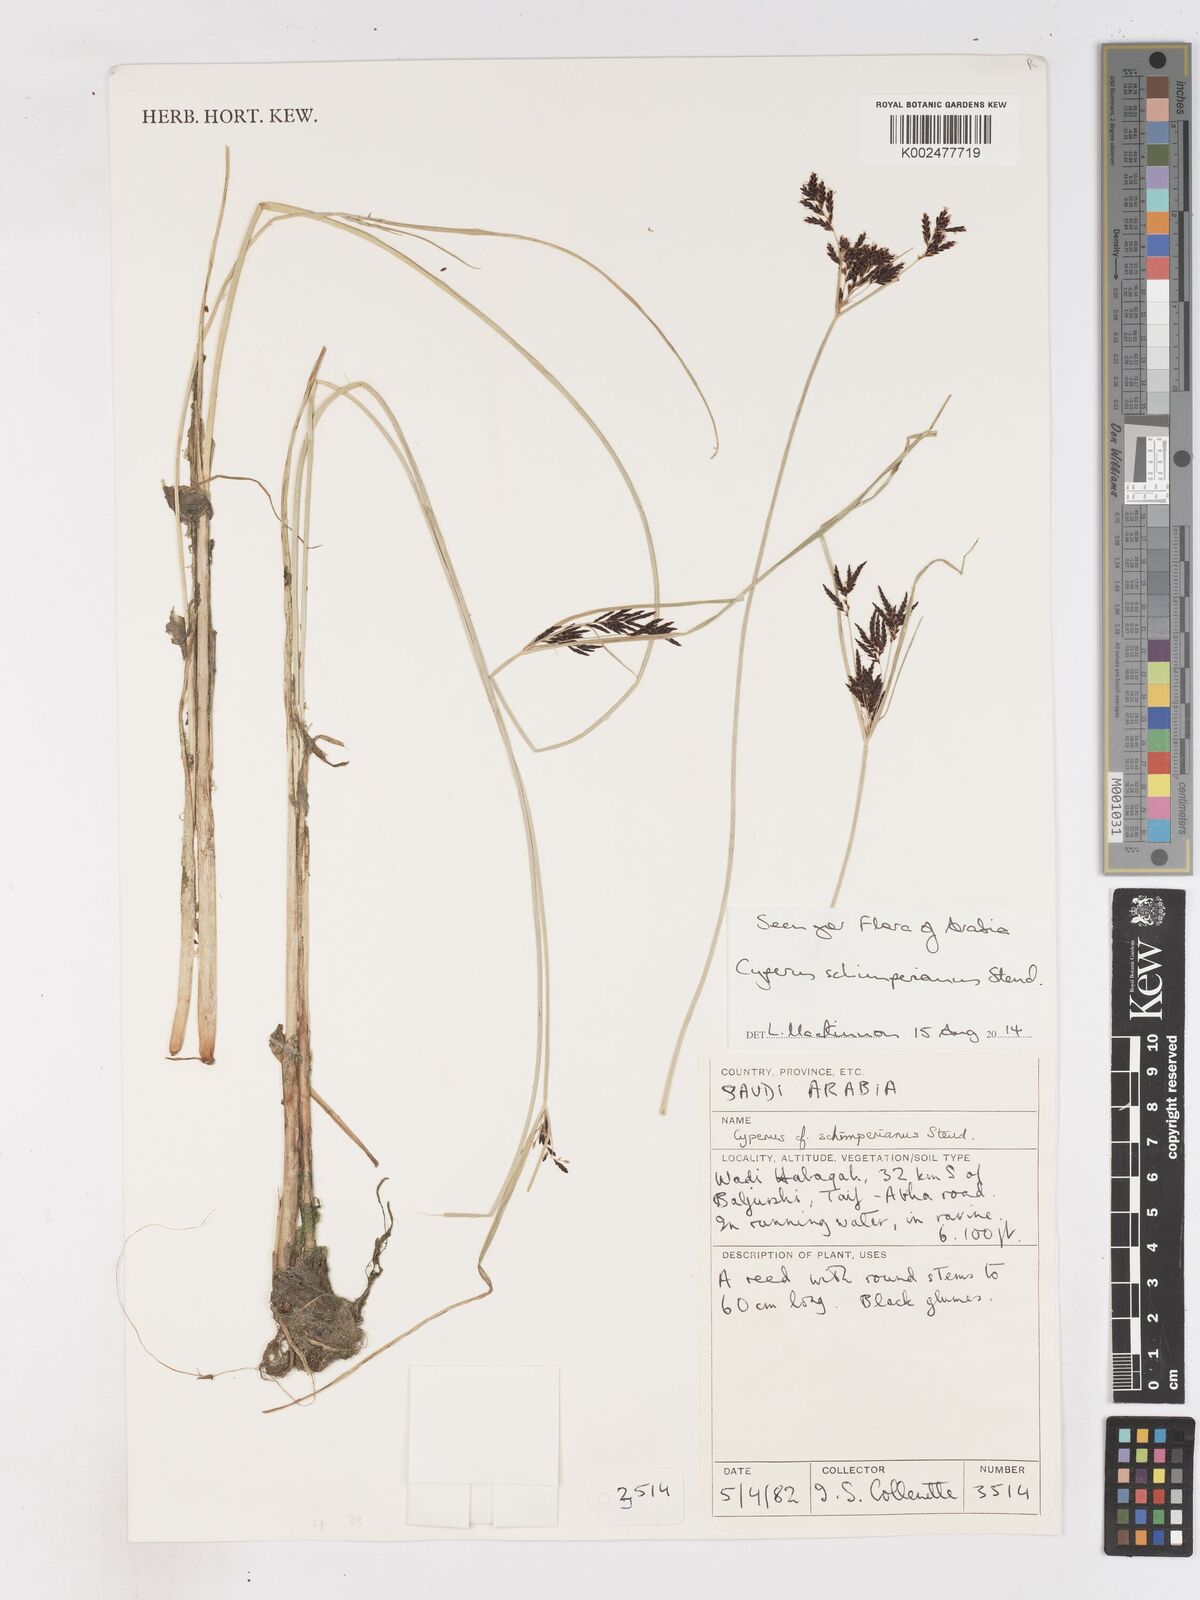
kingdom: Plantae
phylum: Tracheophyta
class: Liliopsida
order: Poales
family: Cyperaceae
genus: Cyperus
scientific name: Cyperus schimperianus
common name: Schimper flatsedge
